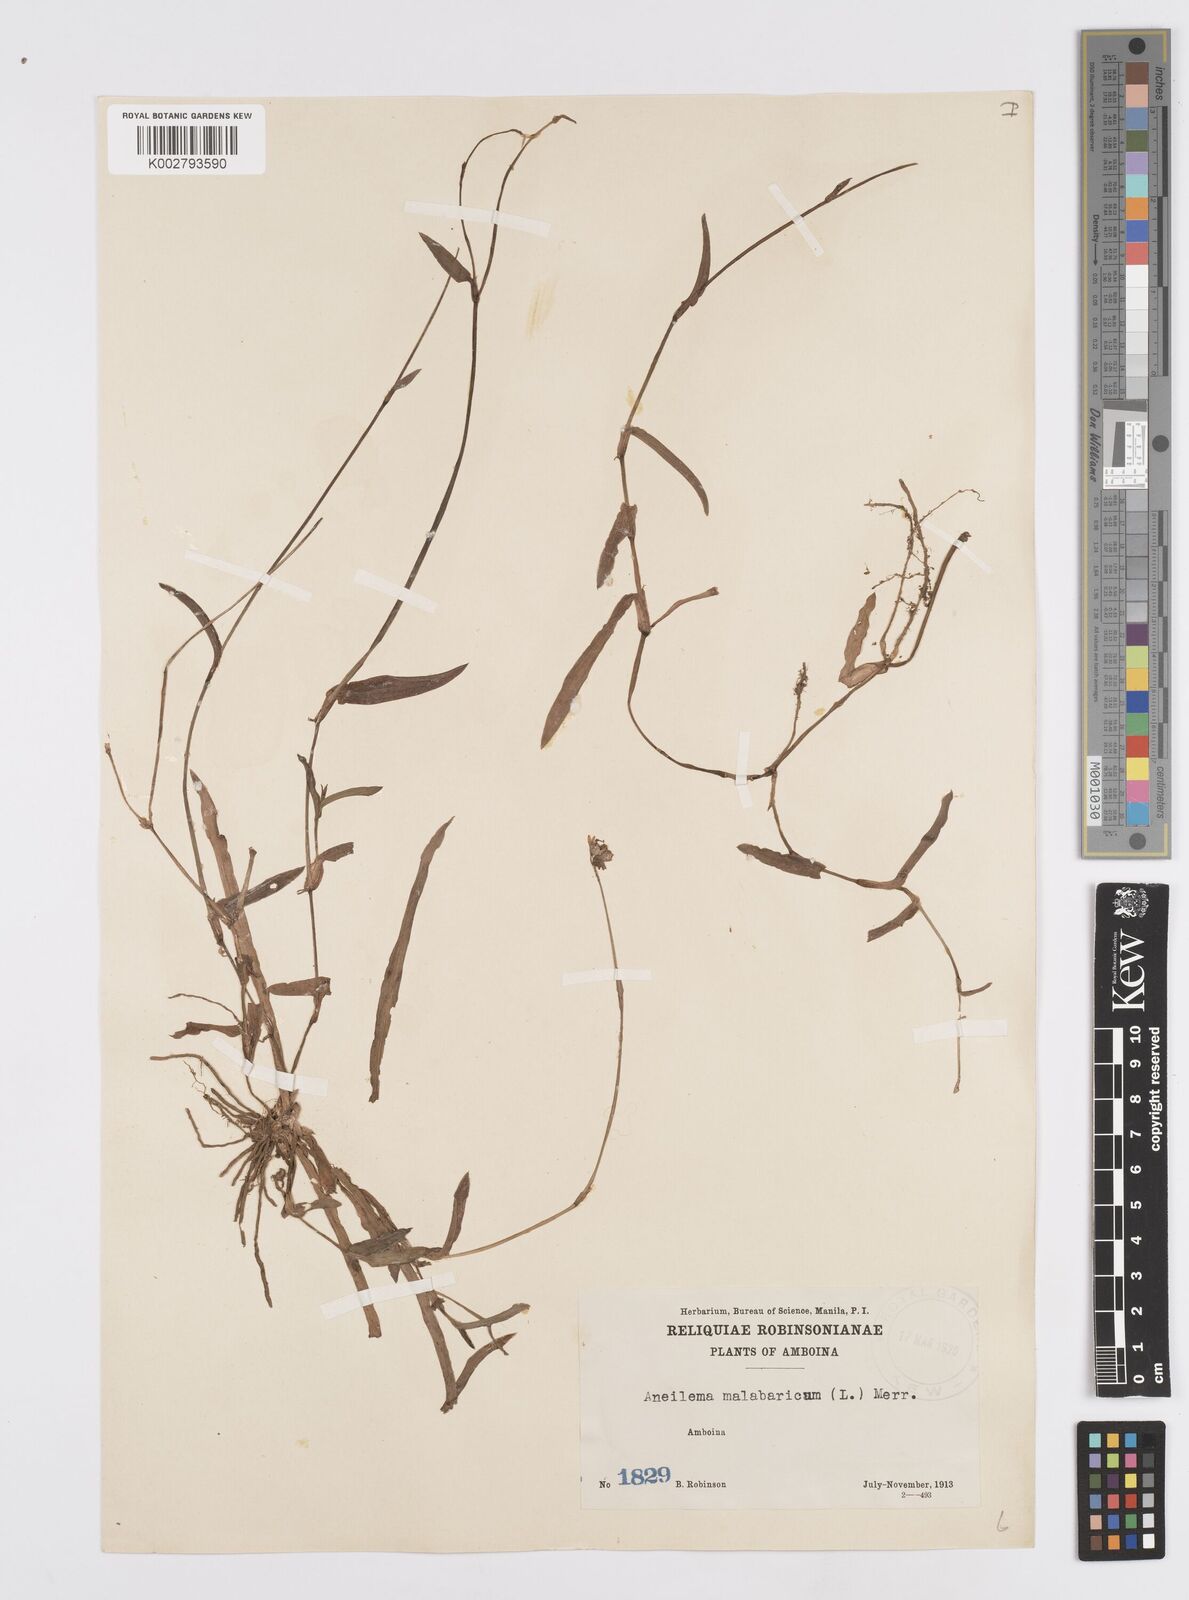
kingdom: Plantae
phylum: Tracheophyta
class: Liliopsida
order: Commelinales
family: Commelinaceae
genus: Murdannia
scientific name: Murdannia nudiflora
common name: Nakedstem dewflower
